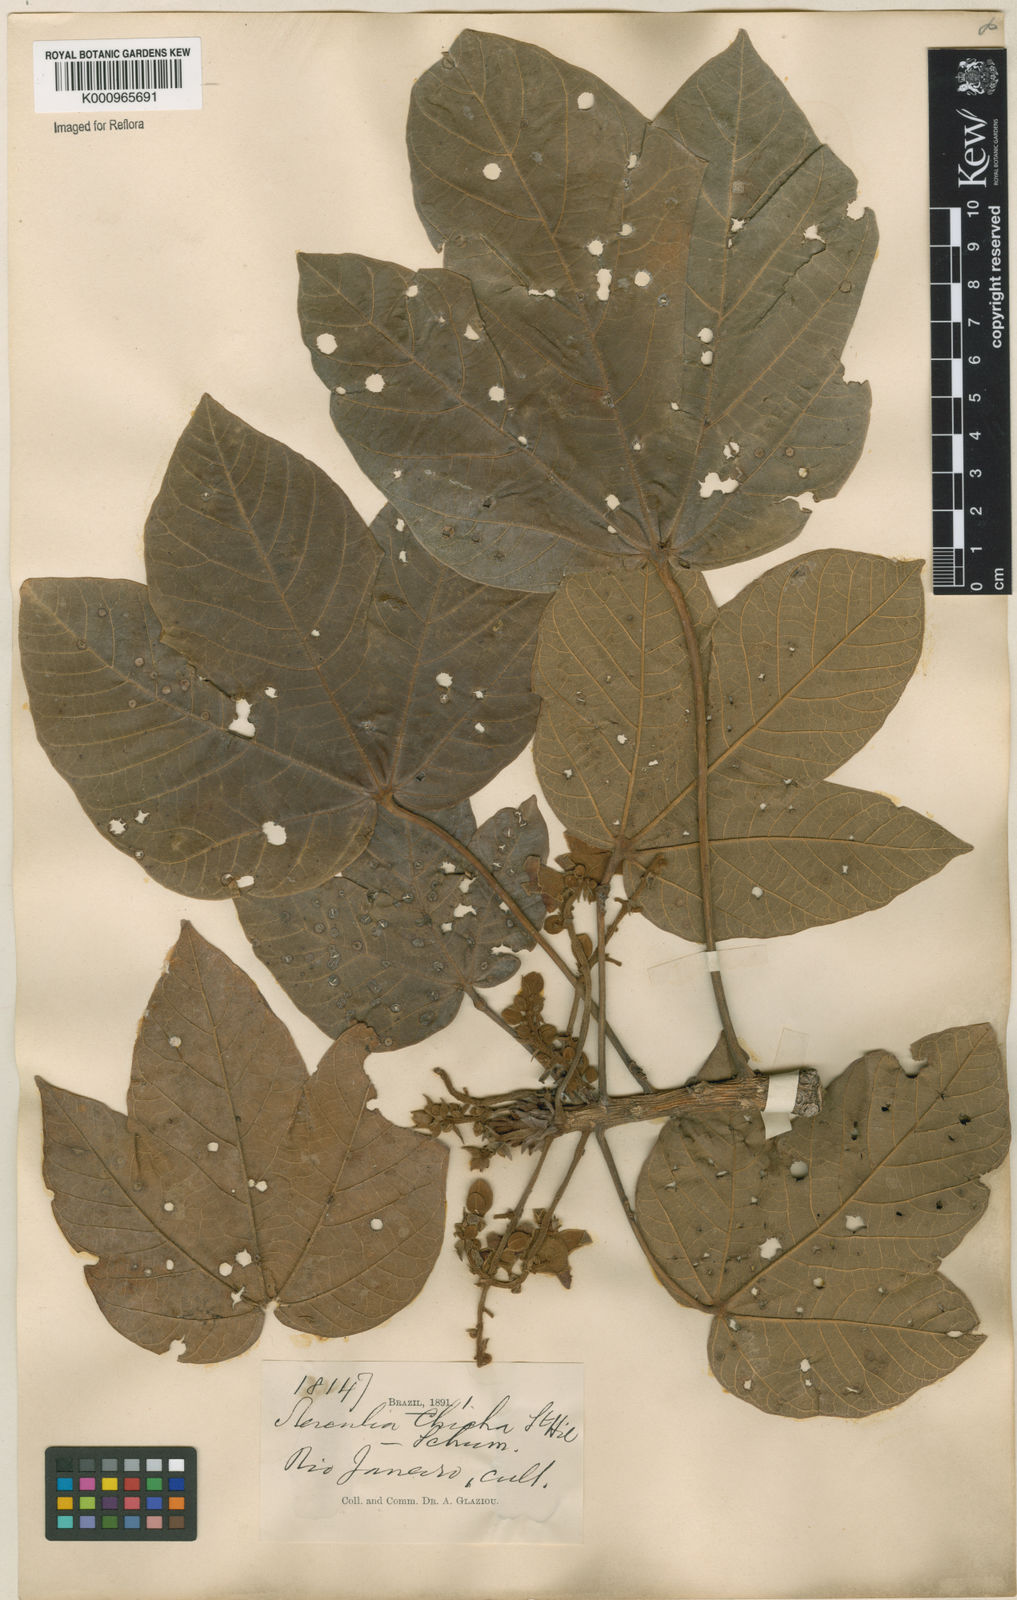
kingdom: Plantae
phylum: Tracheophyta
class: Magnoliopsida
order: Malvales
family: Malvaceae
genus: Sterculia
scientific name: Sterculia apetala
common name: Panama tree
